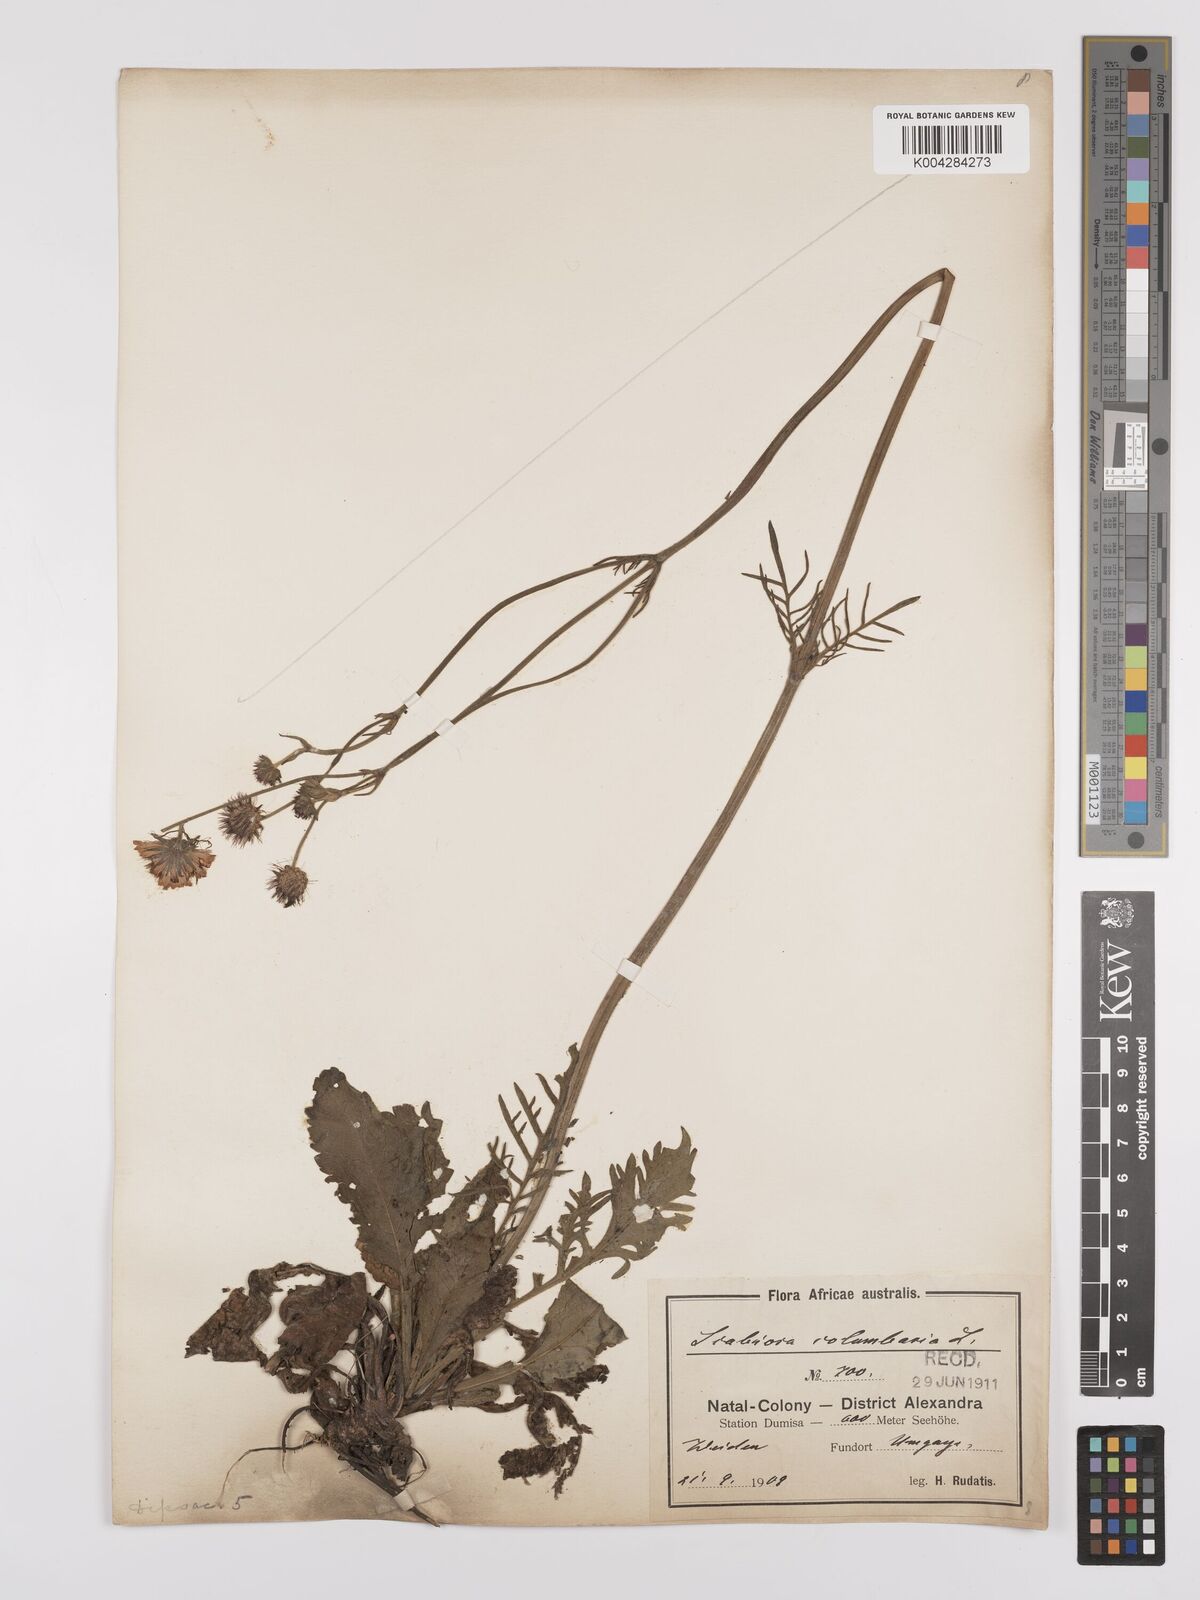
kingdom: Plantae
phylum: Tracheophyta
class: Magnoliopsida
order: Dipsacales
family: Caprifoliaceae
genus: Scabiosa
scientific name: Scabiosa columbaria
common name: Small scabious
